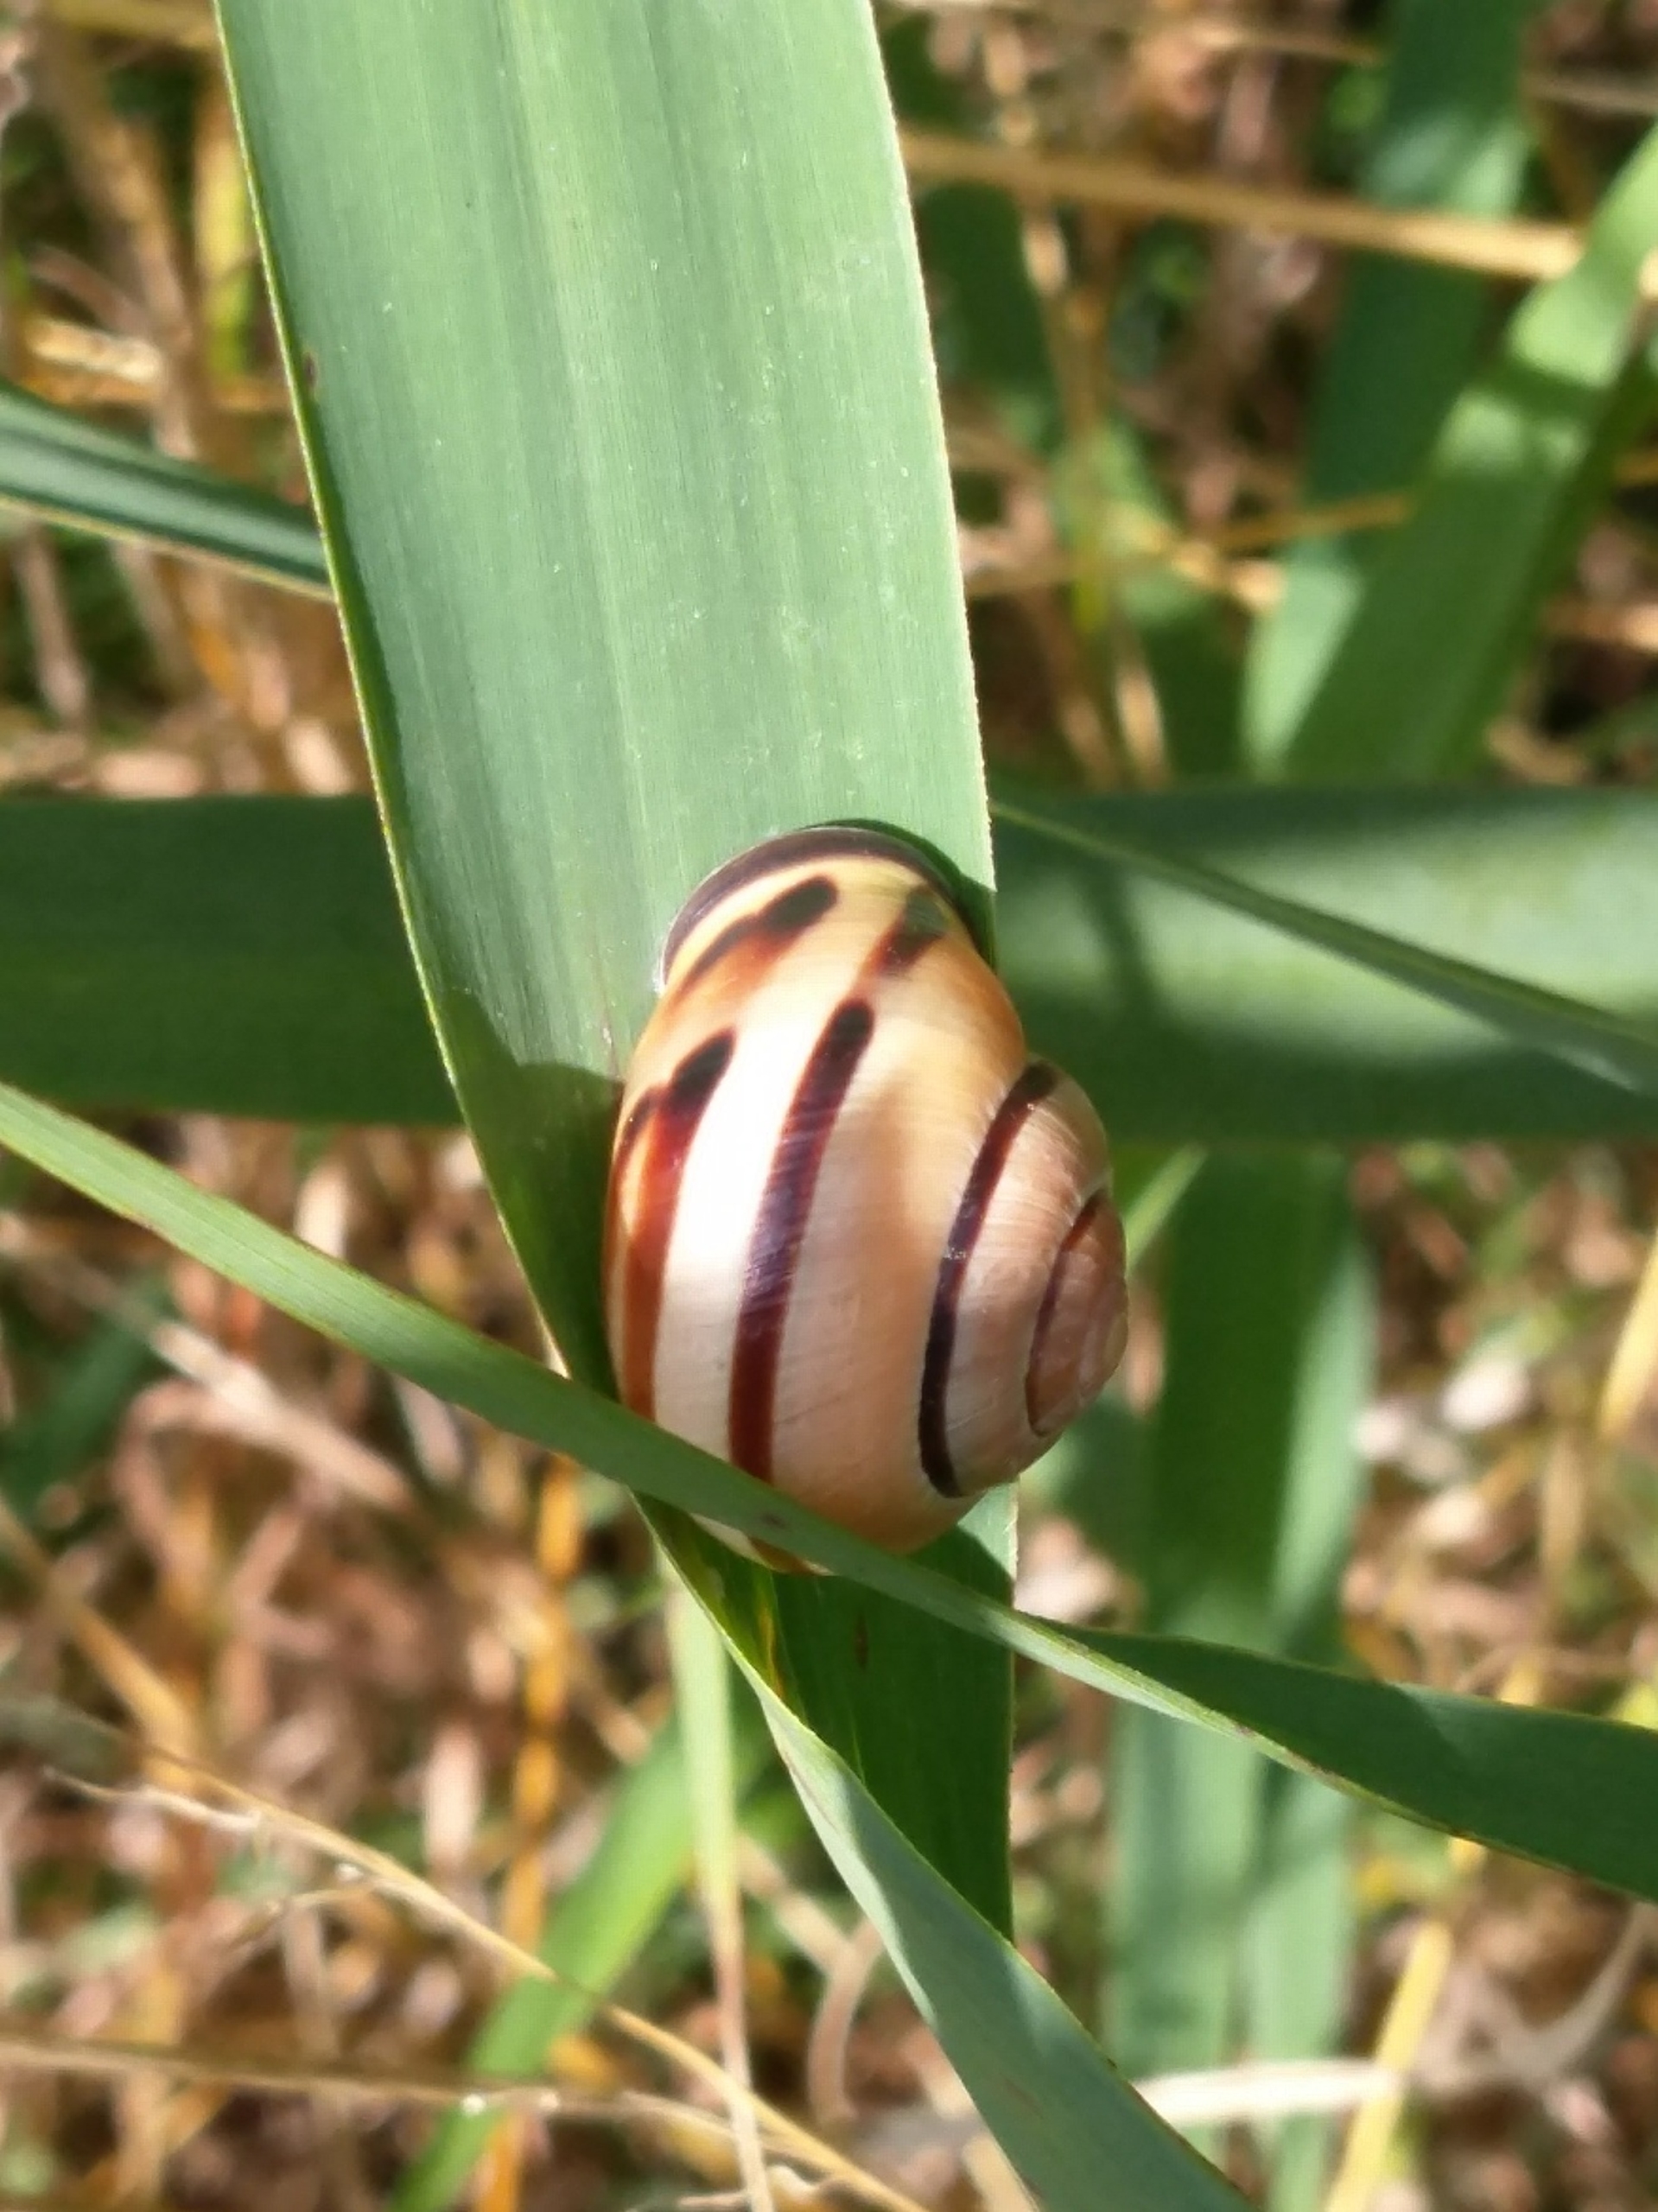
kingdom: Animalia
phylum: Mollusca
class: Gastropoda
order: Stylommatophora
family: Helicidae
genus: Cepaea
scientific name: Cepaea nemoralis
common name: Lundsnegl
